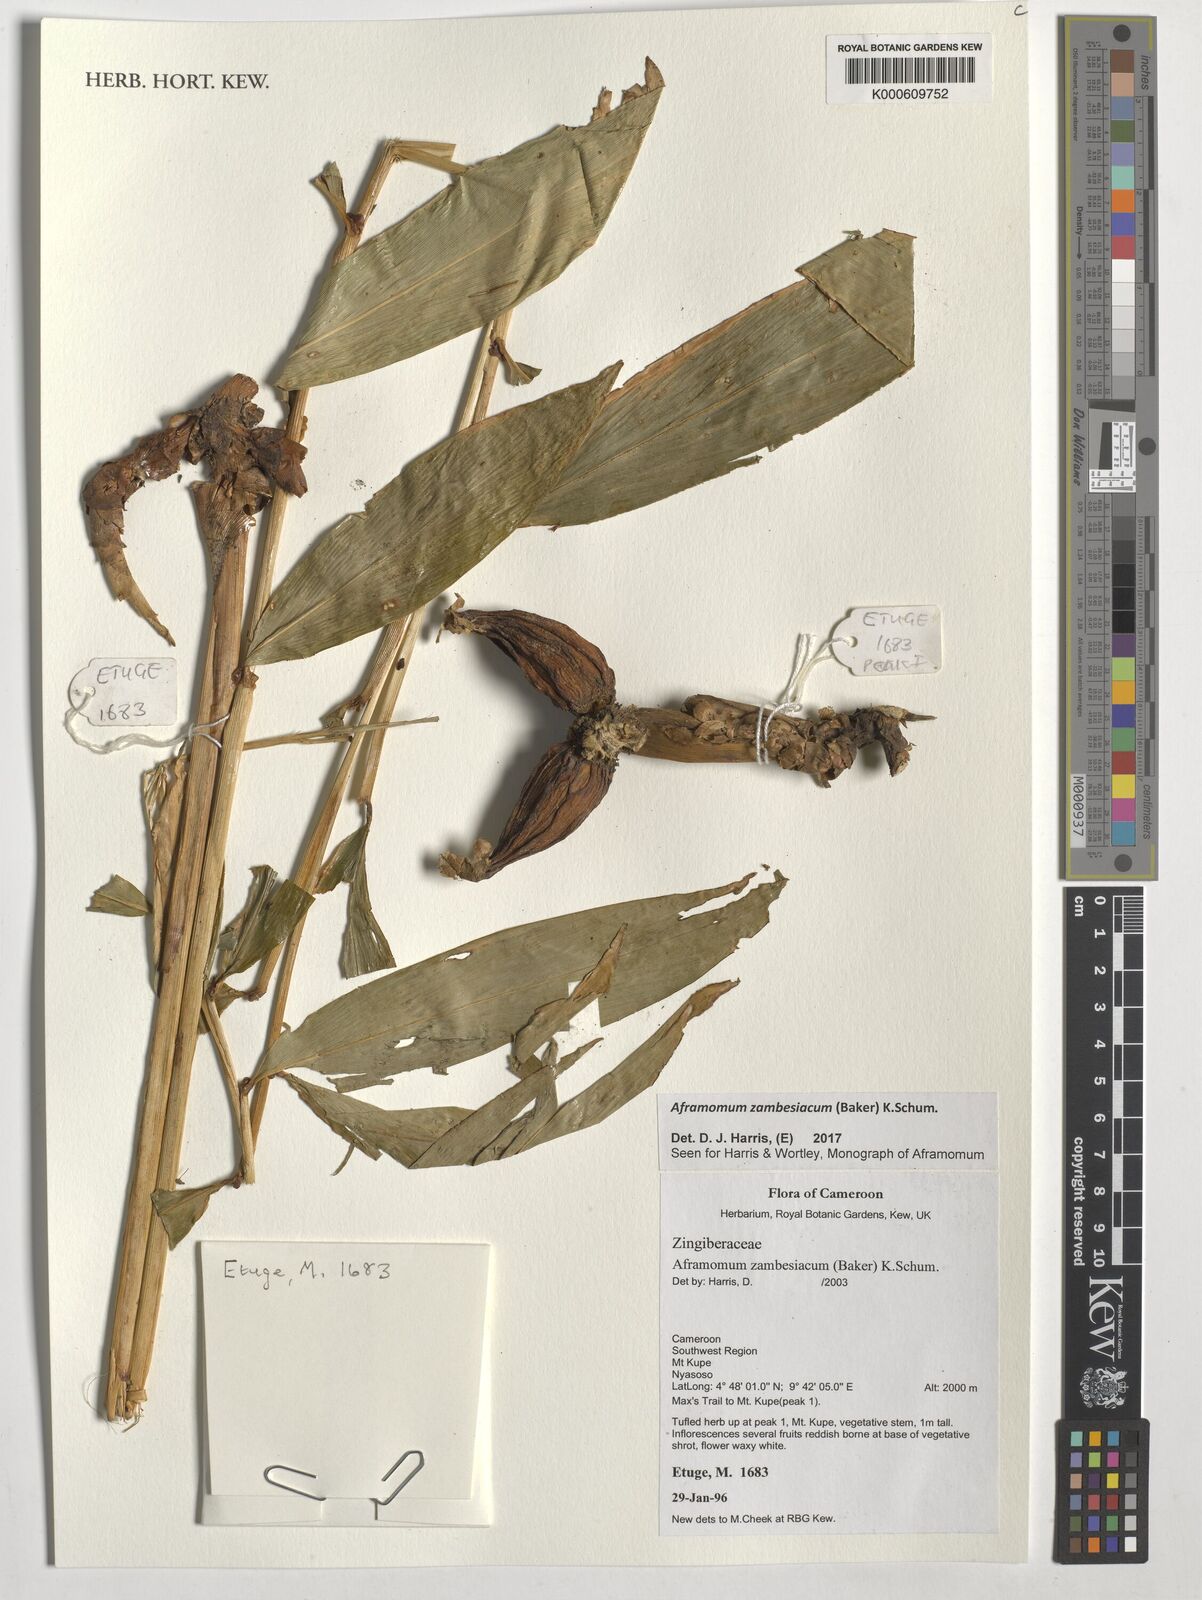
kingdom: Plantae
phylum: Tracheophyta
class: Liliopsida
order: Zingiberales
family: Zingiberaceae
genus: Aframomum
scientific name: Aframomum zambesiacum
